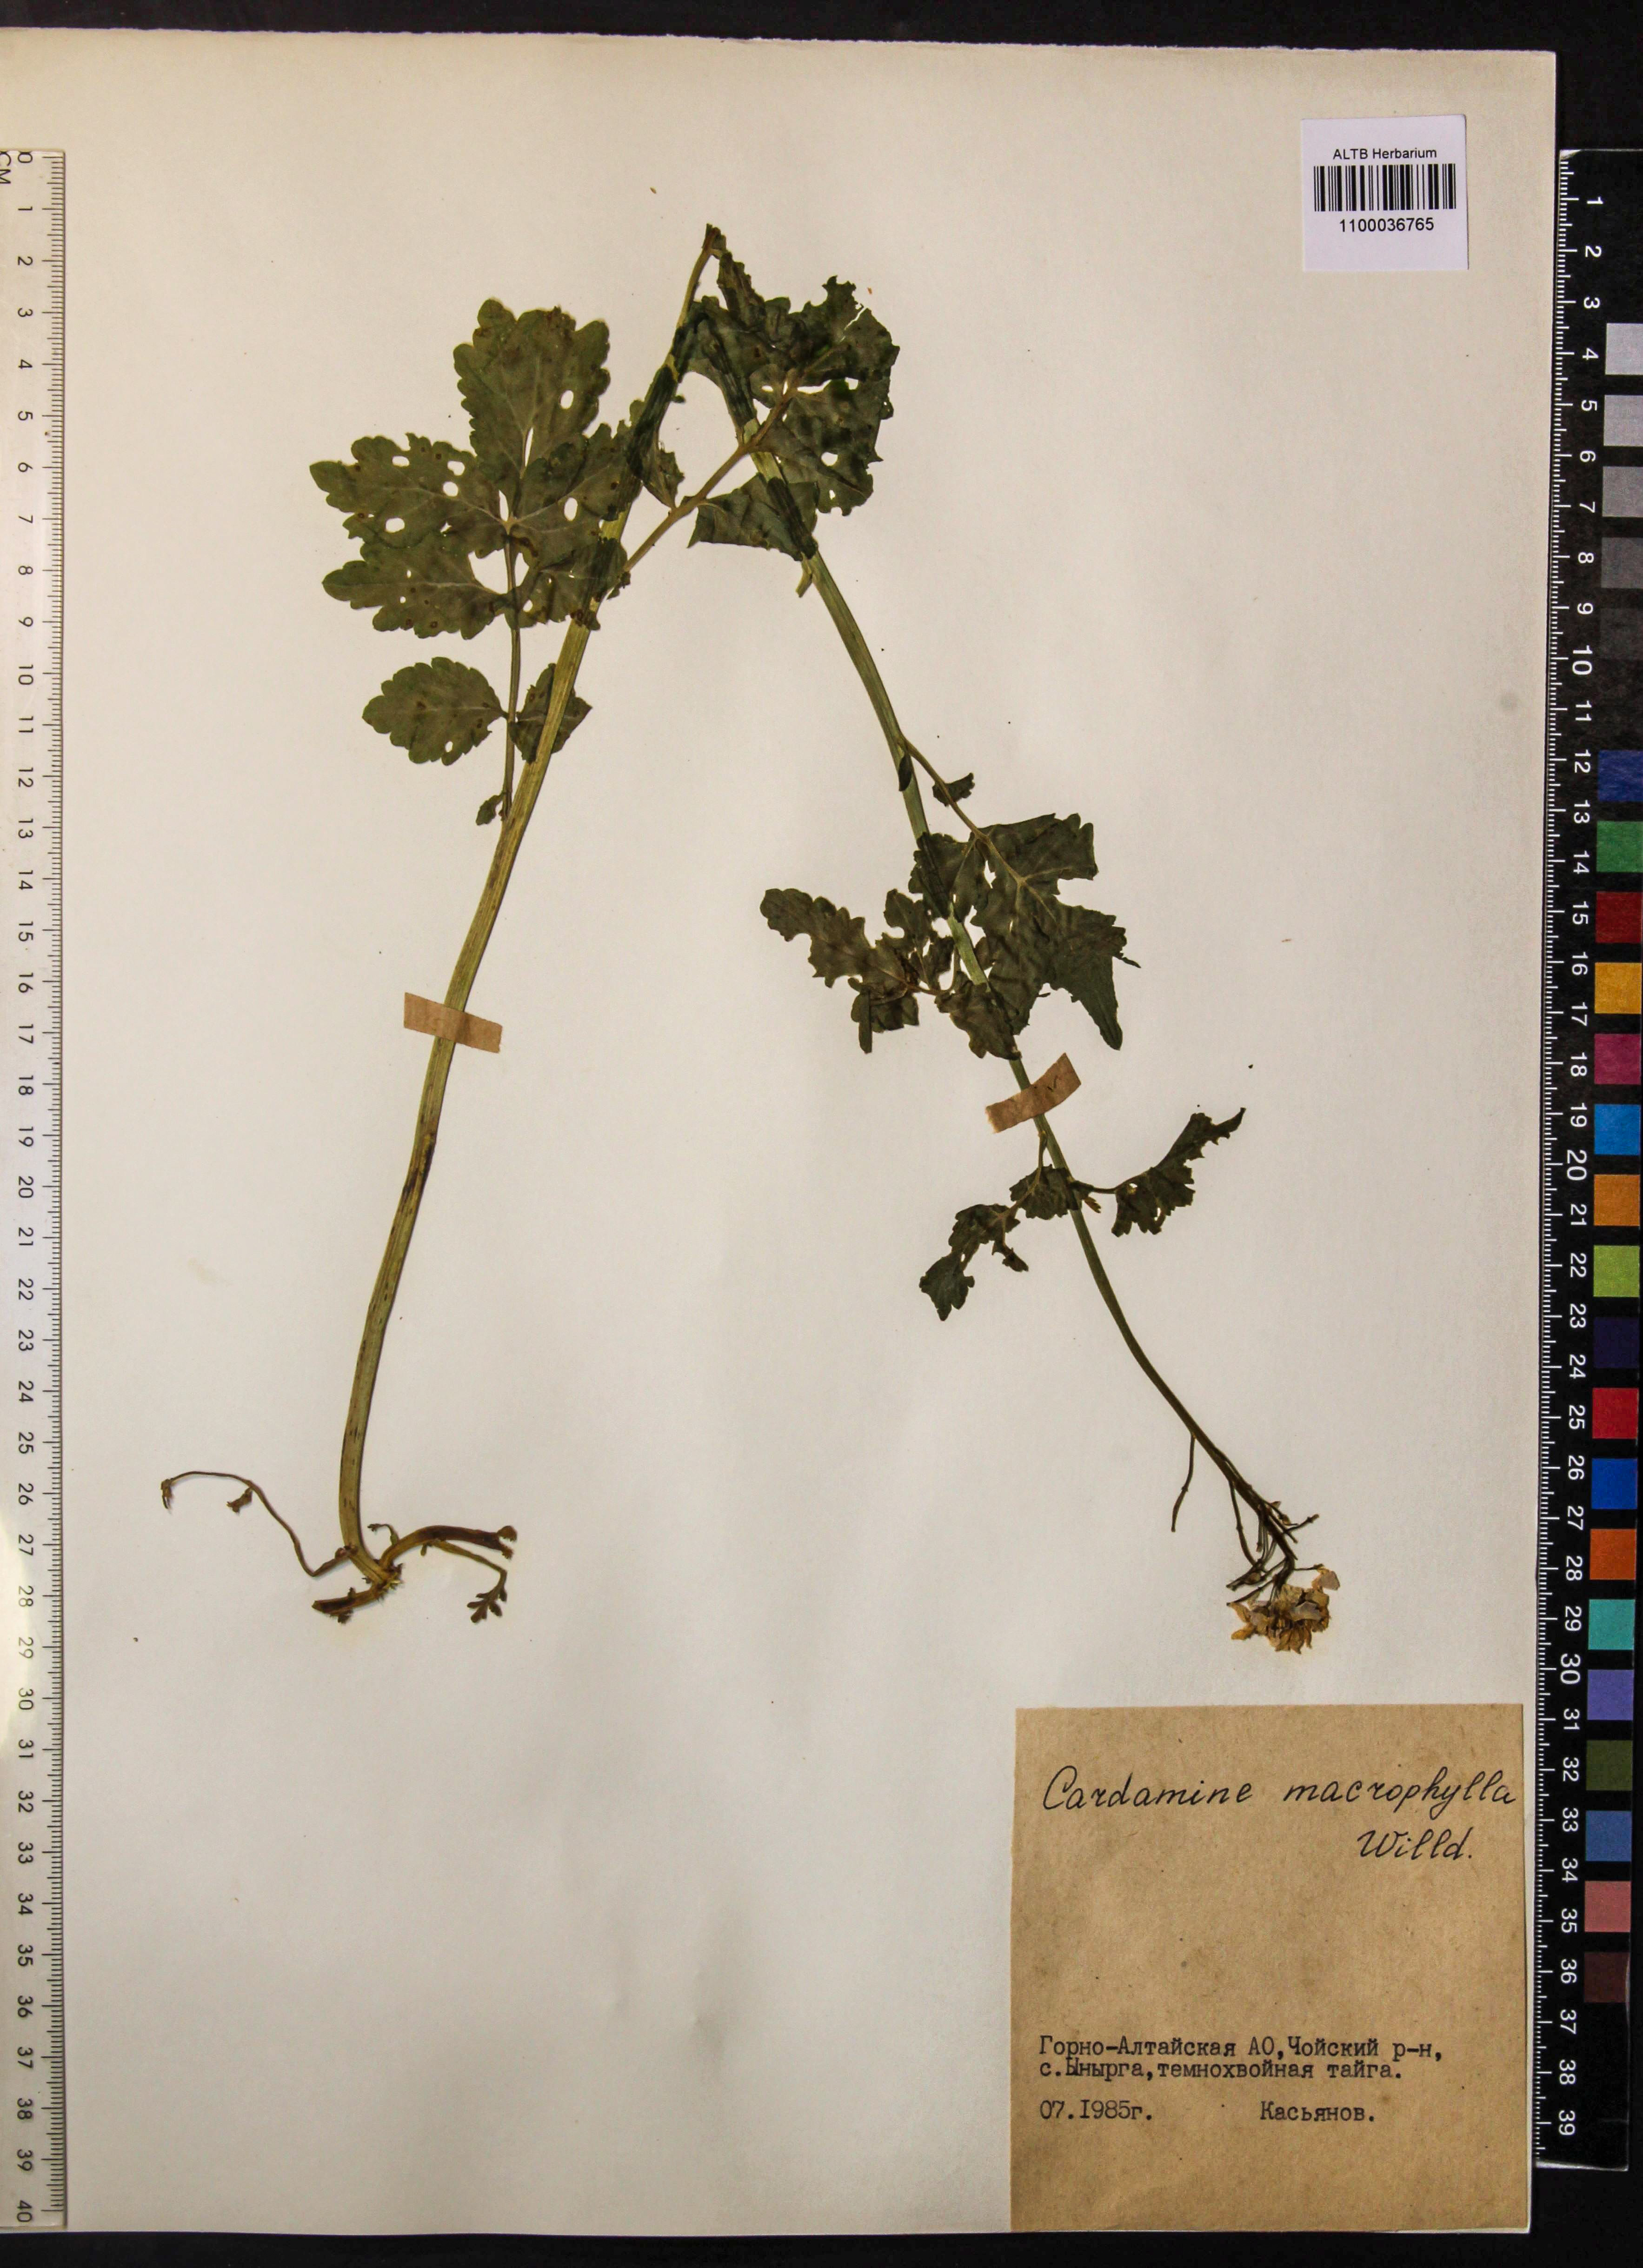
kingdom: Plantae
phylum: Tracheophyta
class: Magnoliopsida
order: Brassicales
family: Brassicaceae
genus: Cardamine
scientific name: Cardamine macrophylla
